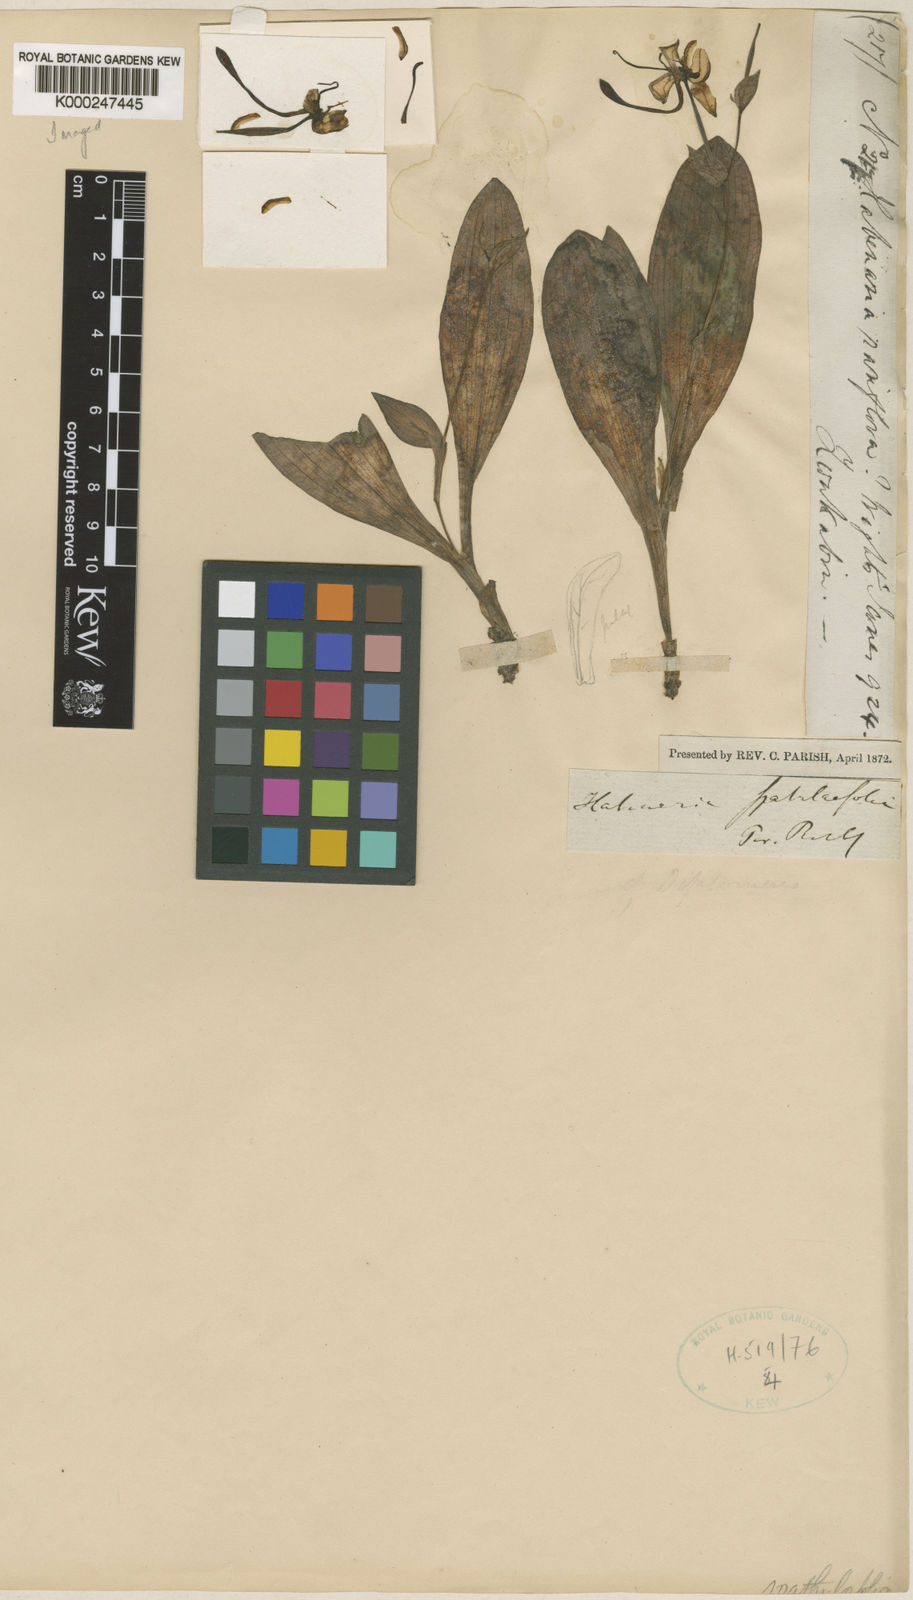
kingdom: Plantae
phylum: Tracheophyta
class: Liliopsida
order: Asparagales
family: Orchidaceae
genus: Habenaria
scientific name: Habenaria spatulifolia
